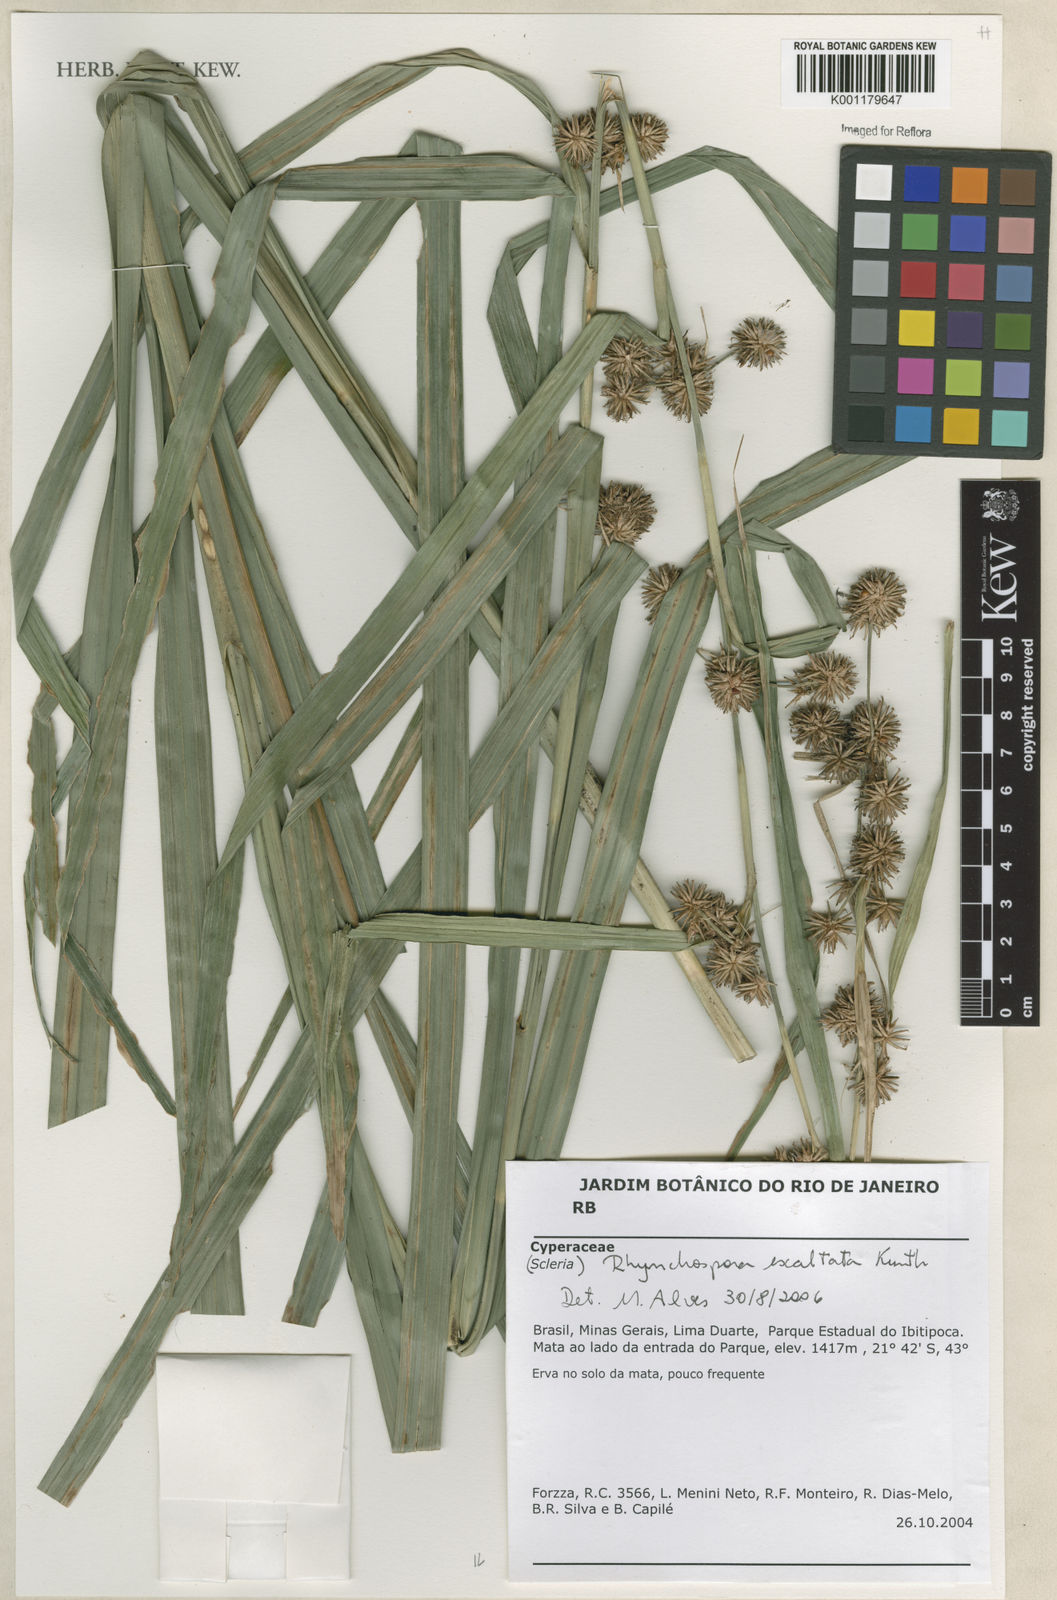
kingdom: Plantae
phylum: Tracheophyta
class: Liliopsida
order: Poales
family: Cyperaceae
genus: Rhynchospora
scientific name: Rhynchospora exaltata
